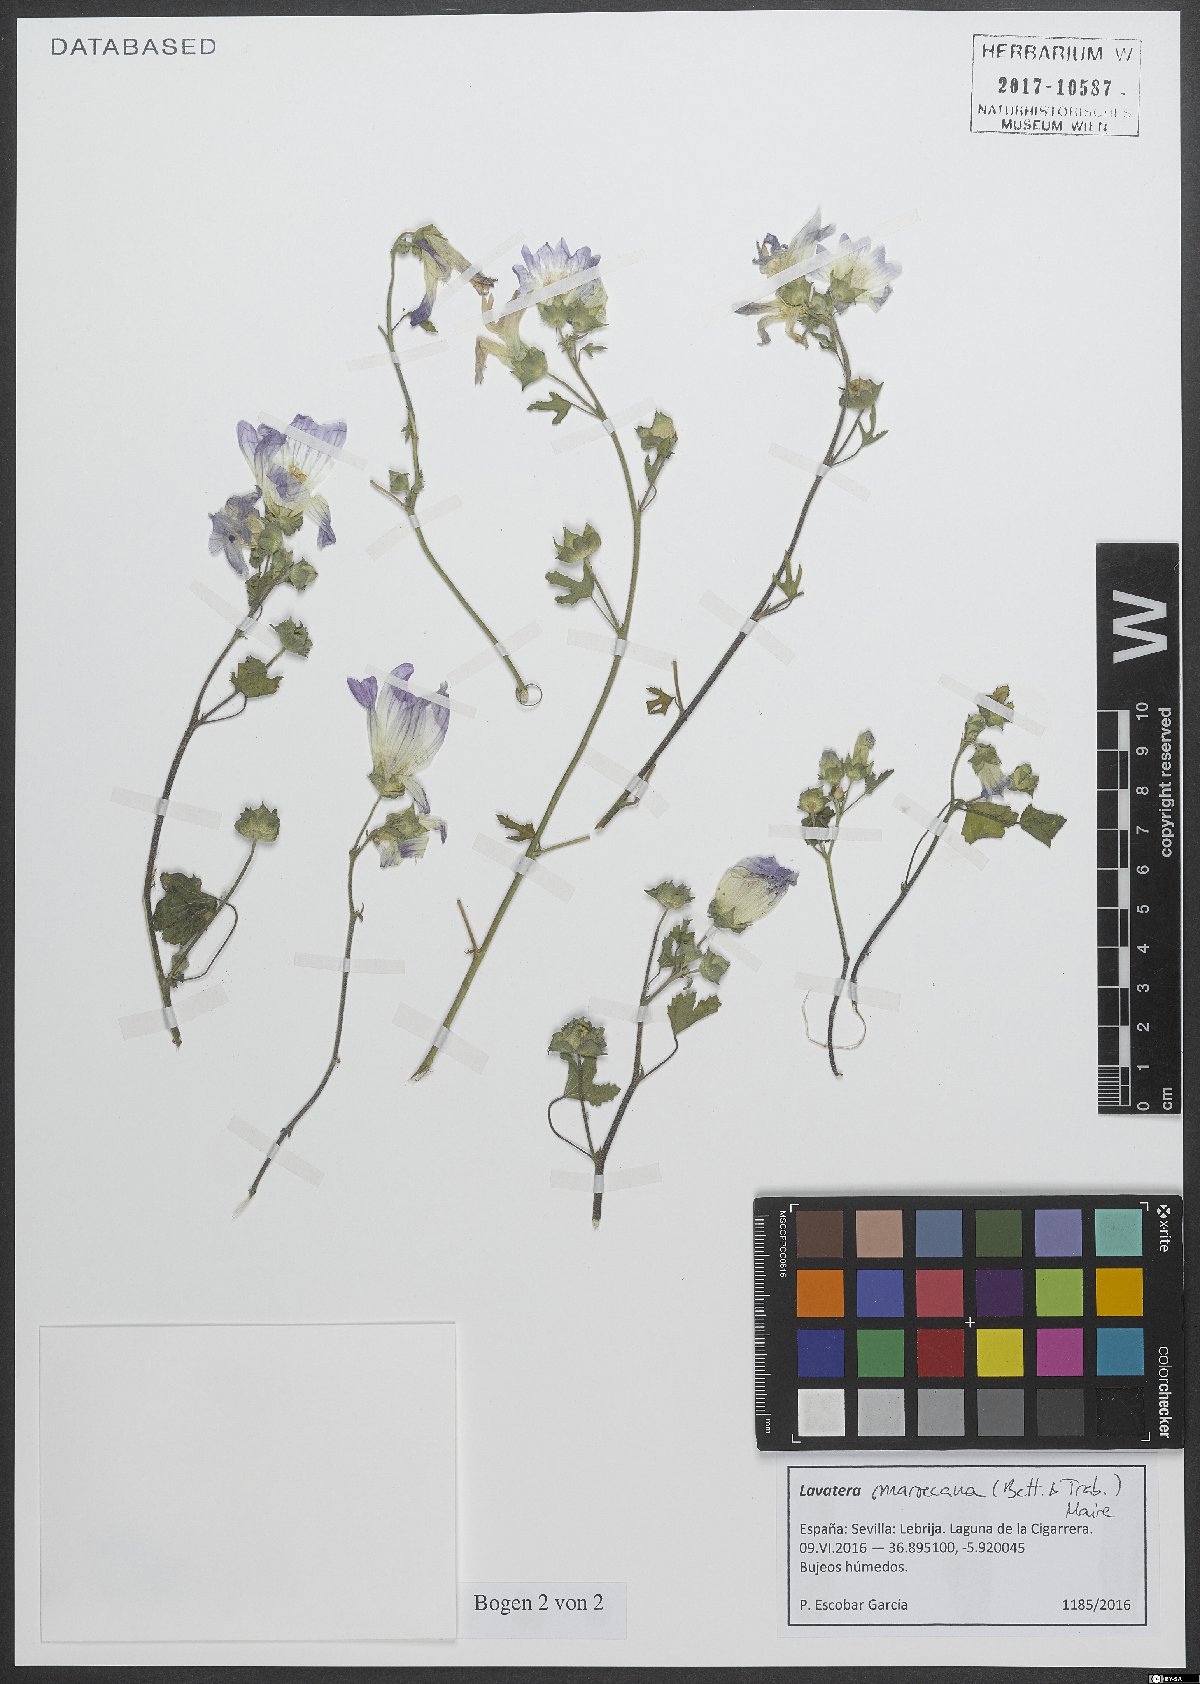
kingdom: Plantae
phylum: Tracheophyta
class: Magnoliopsida
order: Malvales
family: Malvaceae
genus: Malva
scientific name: Malva maroccana
